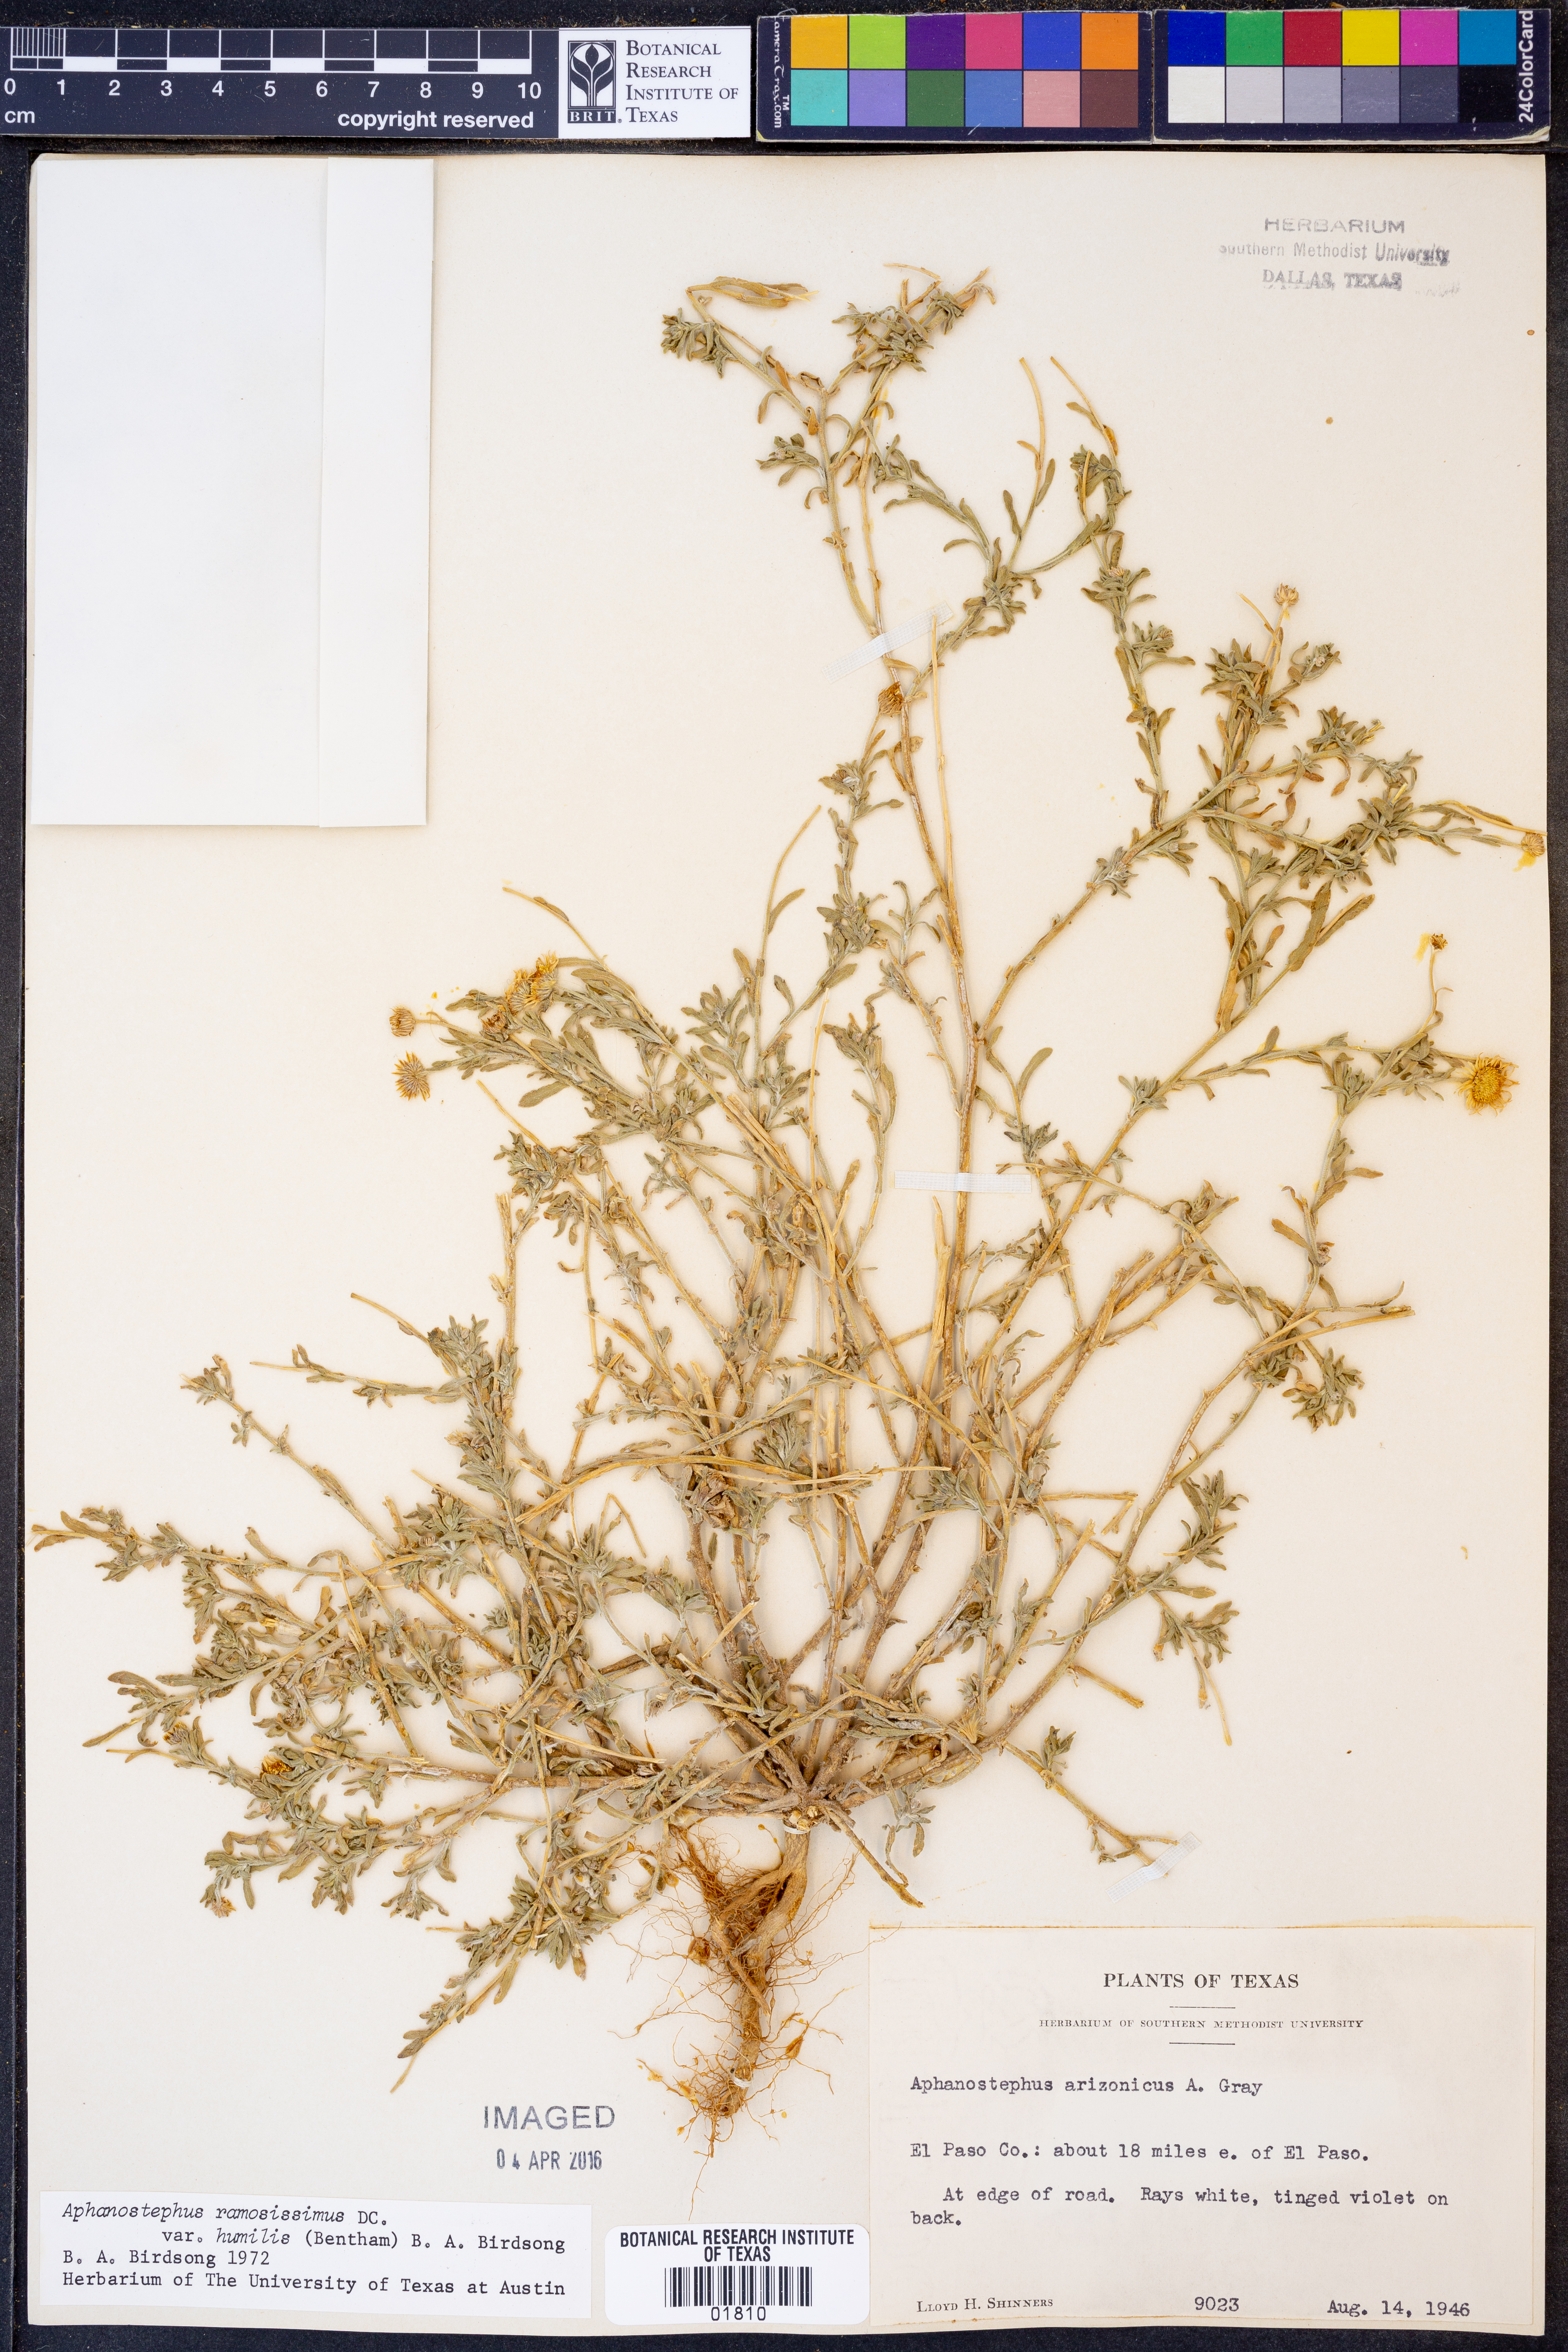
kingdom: Plantae
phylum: Tracheophyta
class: Magnoliopsida
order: Asterales
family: Asteraceae
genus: Aphanostephus
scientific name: Aphanostephus ramosissimus
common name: Plains lazy daisy
